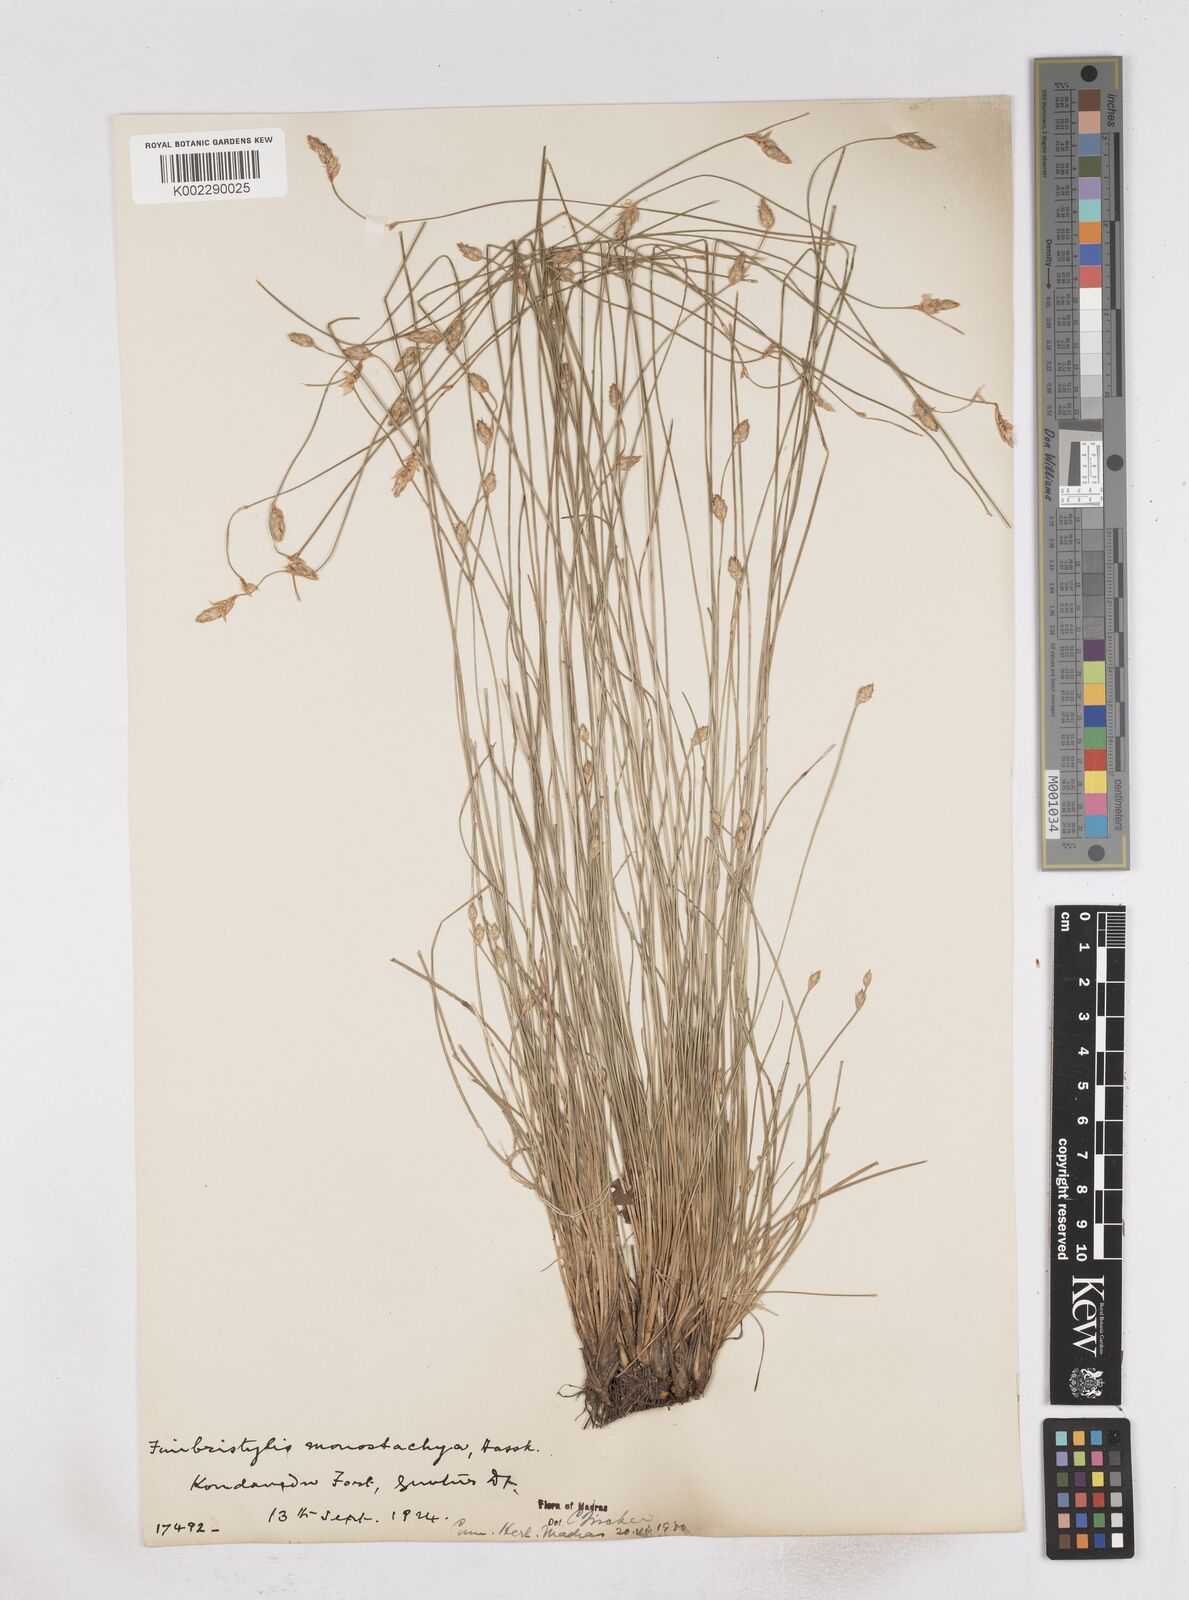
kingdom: Plantae
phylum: Tracheophyta
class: Liliopsida
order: Poales
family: Cyperaceae
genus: Abildgaardia
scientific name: Abildgaardia ovata
